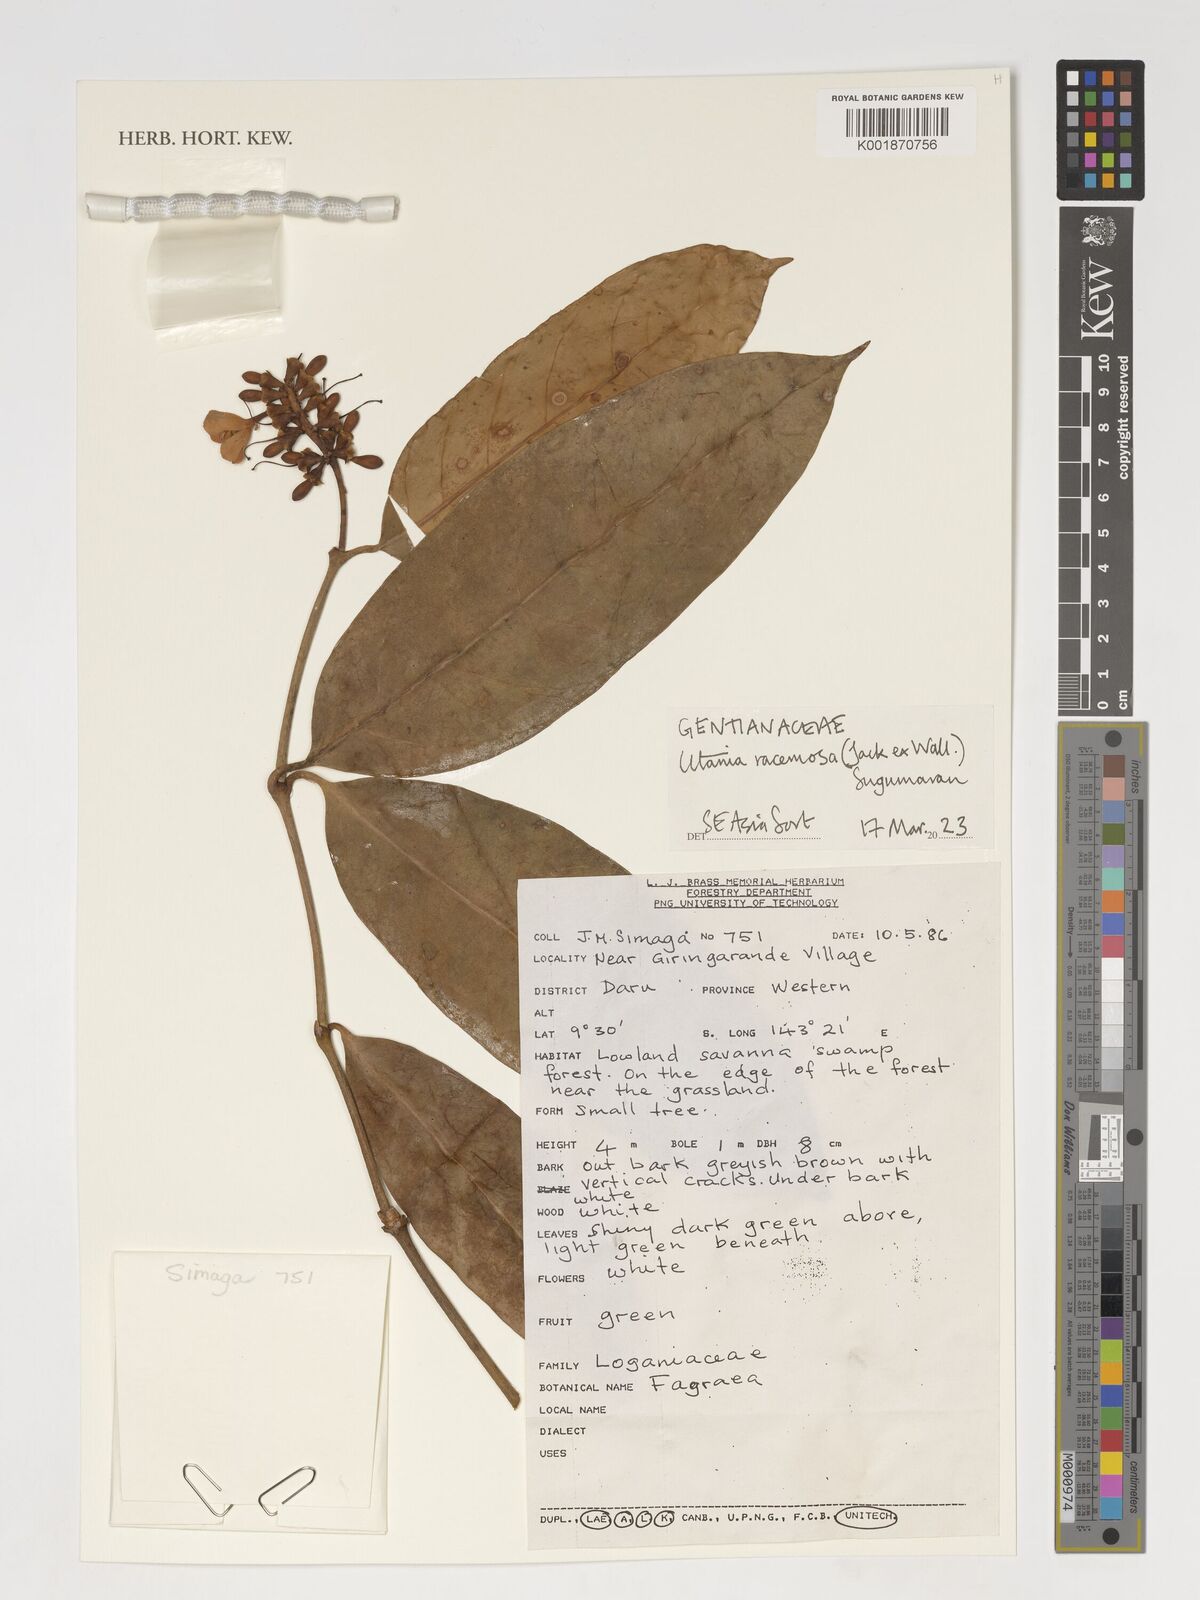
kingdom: Plantae
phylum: Tracheophyta
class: Magnoliopsida
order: Gentianales
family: Gentianaceae
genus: Utania
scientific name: Utania racemosa
